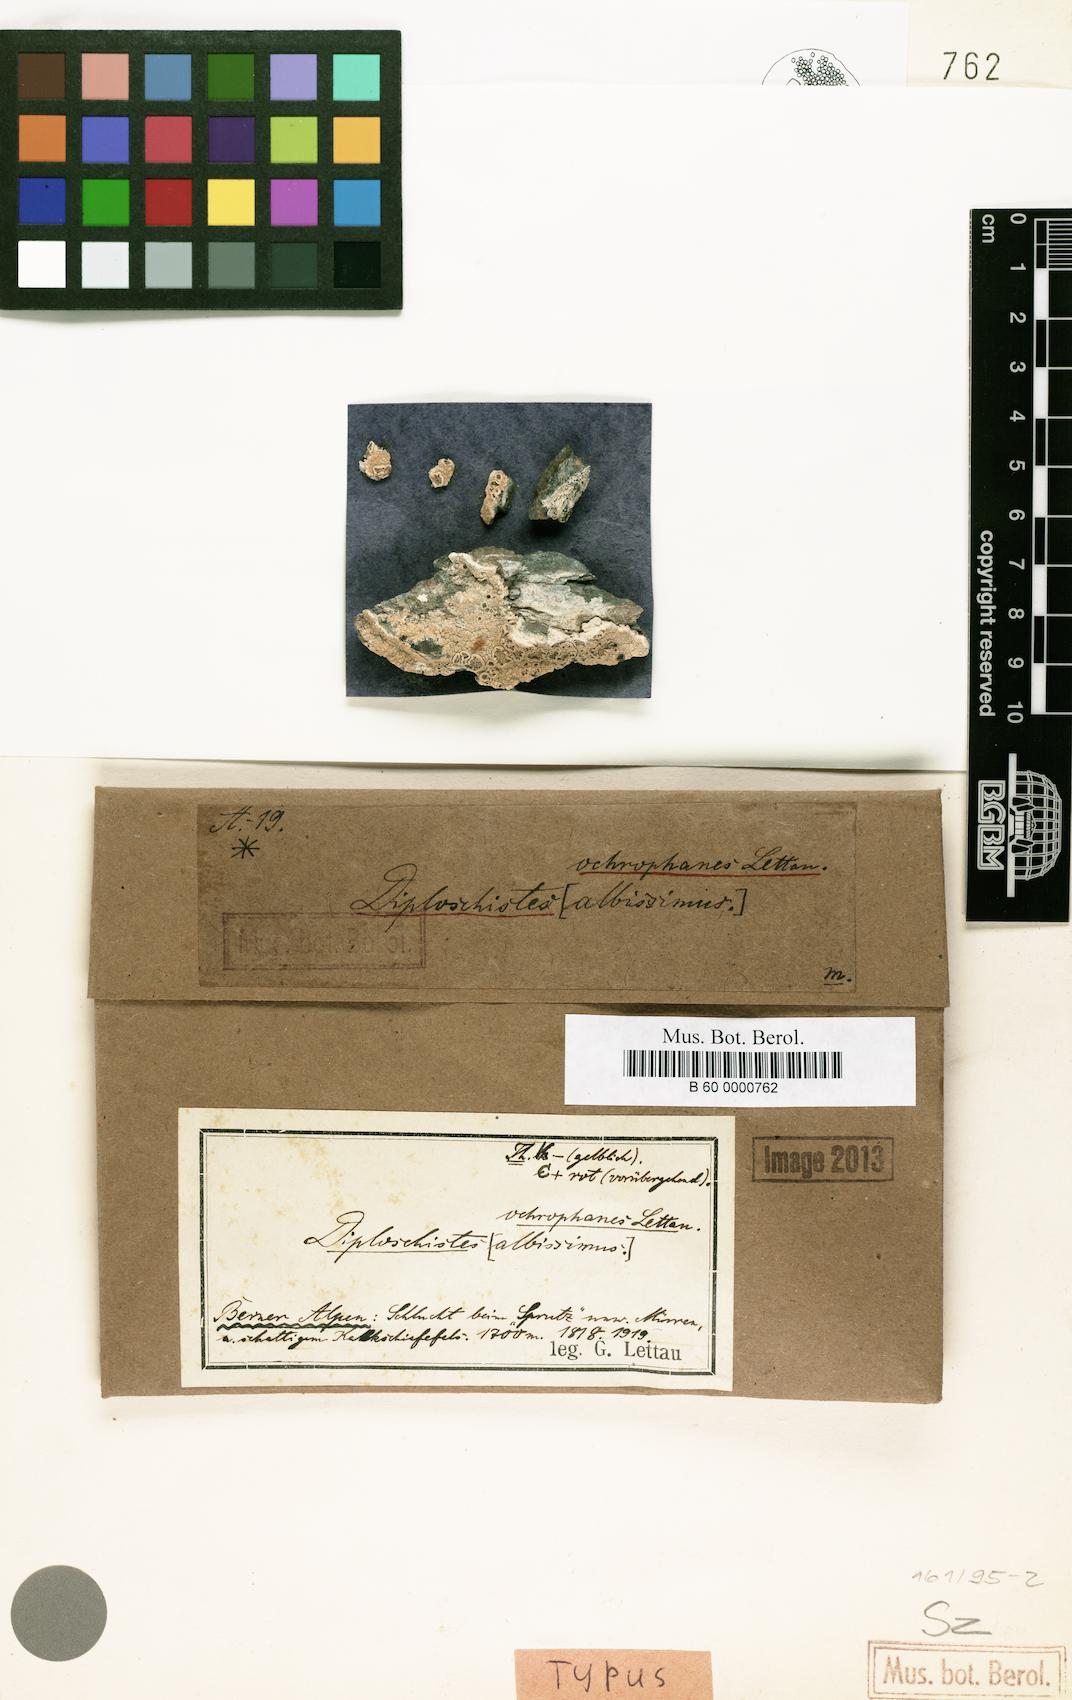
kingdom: Fungi
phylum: Ascomycota
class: Lecanoromycetes
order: Ostropales
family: Graphidaceae
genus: Diploschistes
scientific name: Diploschistes gypsaceus
